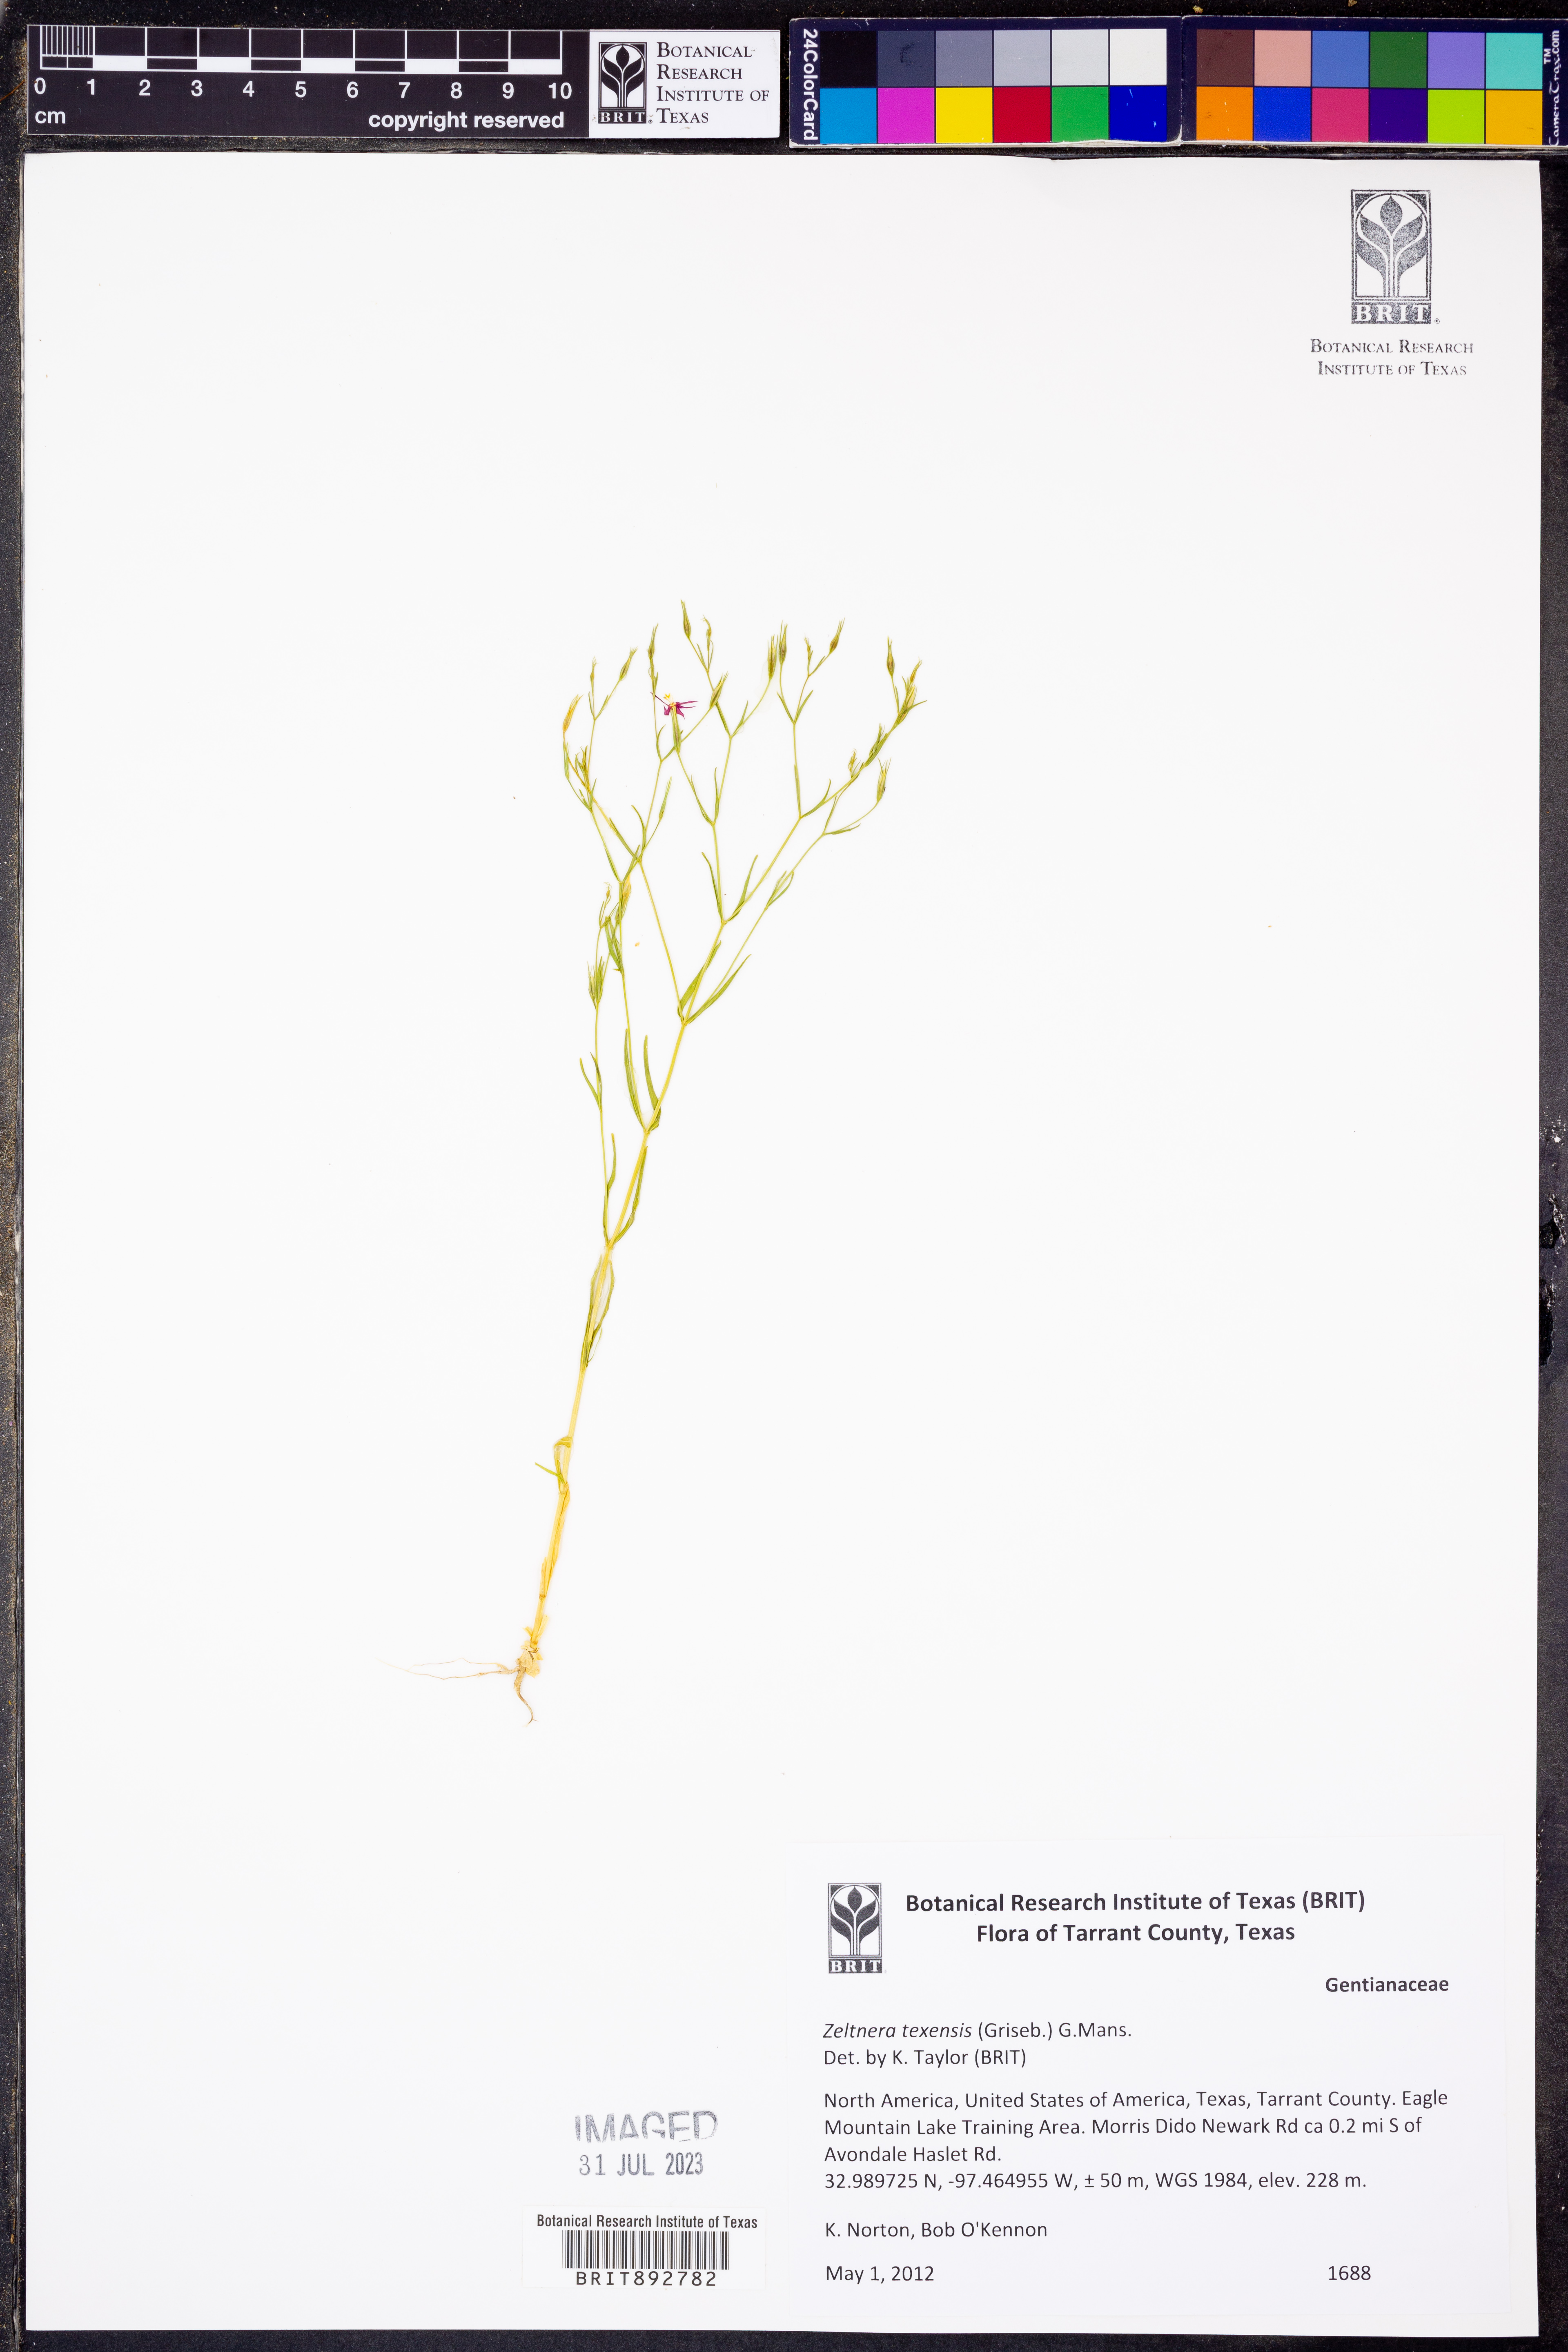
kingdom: Plantae
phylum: Tracheophyta
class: Magnoliopsida
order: Gentianales
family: Gentianaceae
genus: Zeltnera
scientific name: Zeltnera texensis
